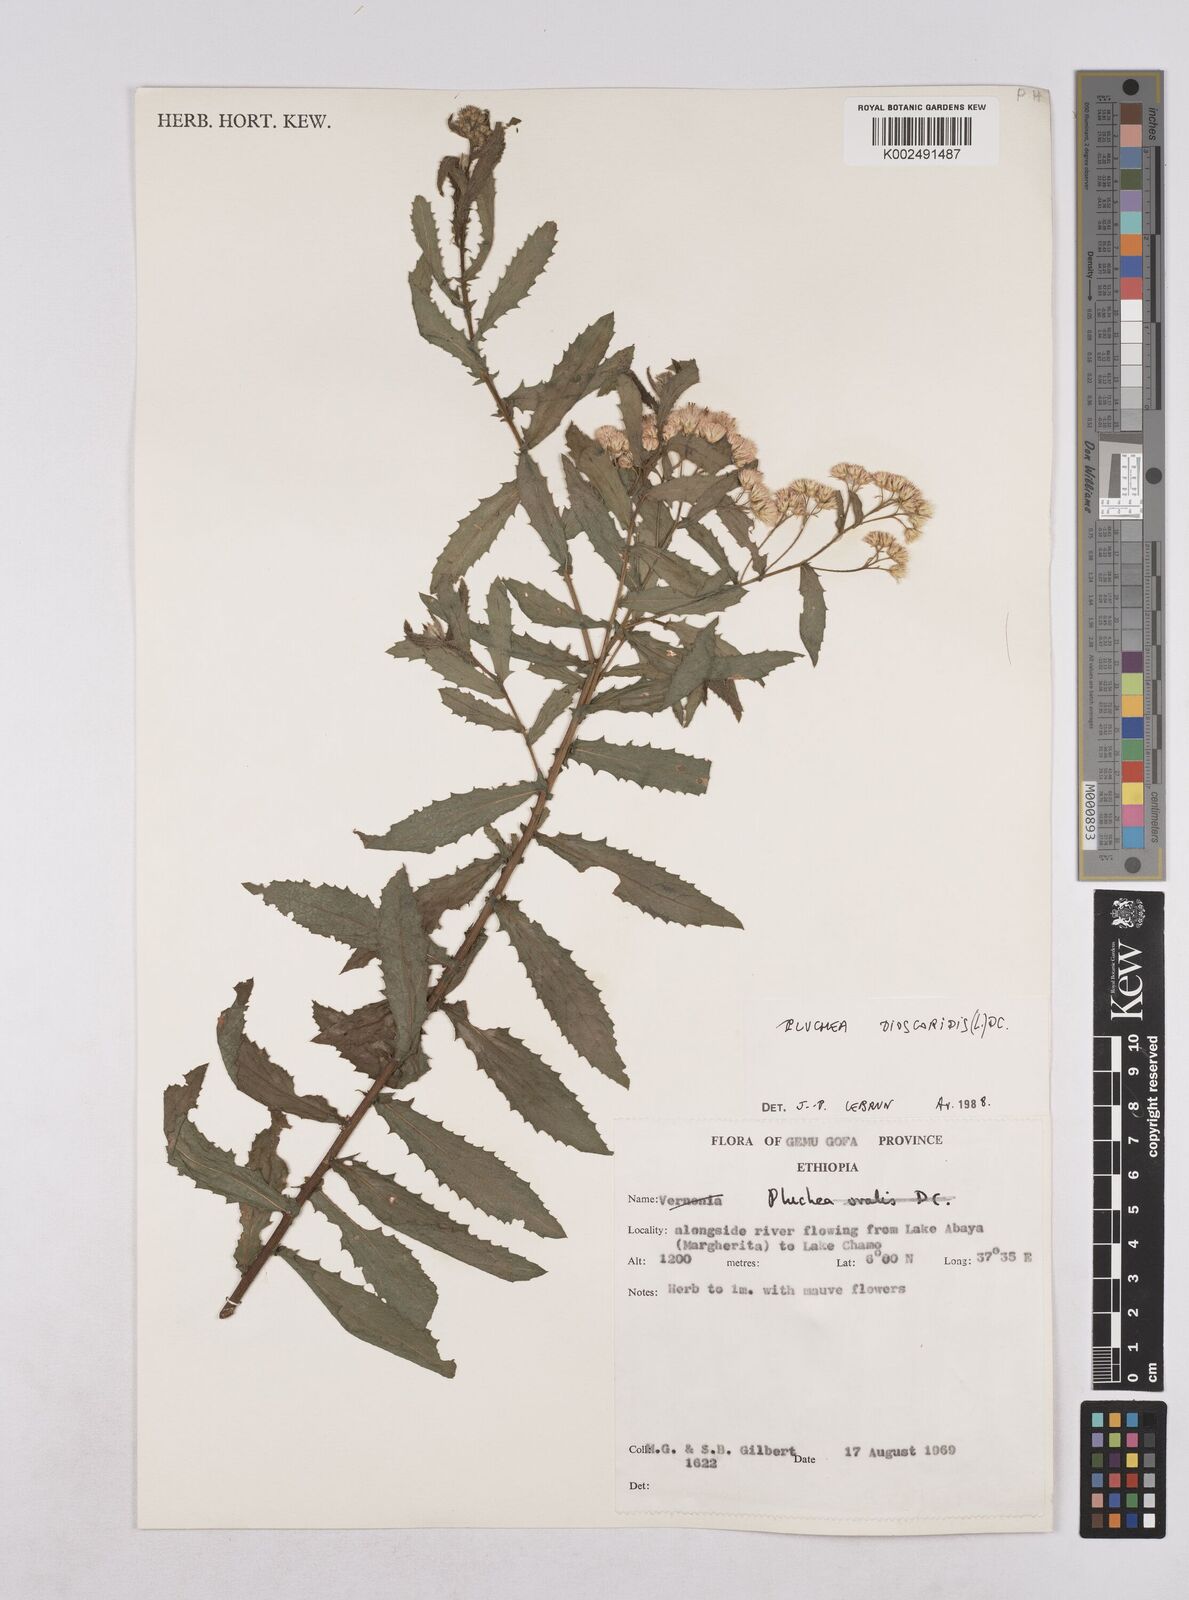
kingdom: Plantae
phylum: Tracheophyta
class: Magnoliopsida
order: Asterales
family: Asteraceae
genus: Pluchea
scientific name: Pluchea dioscoridis
